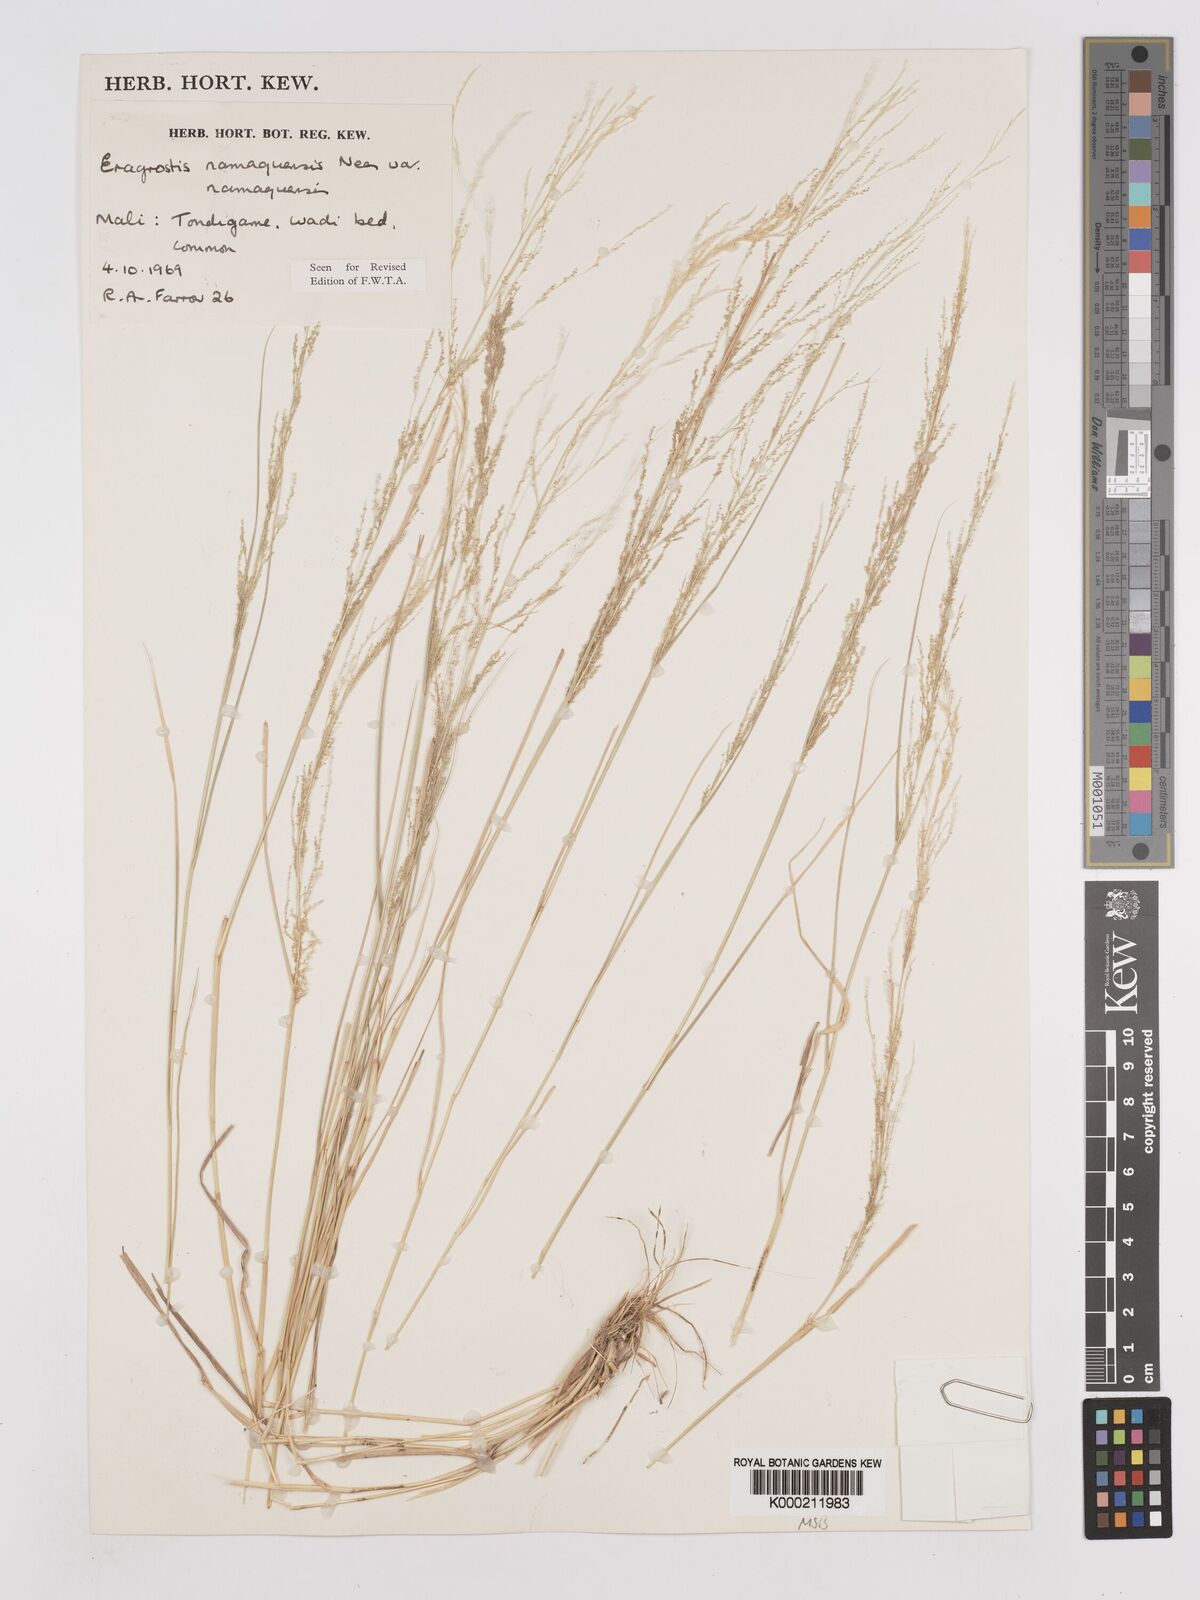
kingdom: Plantae
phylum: Tracheophyta
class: Liliopsida
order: Poales
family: Poaceae
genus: Eragrostis
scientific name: Eragrostis japonica
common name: Pond lovegrass
